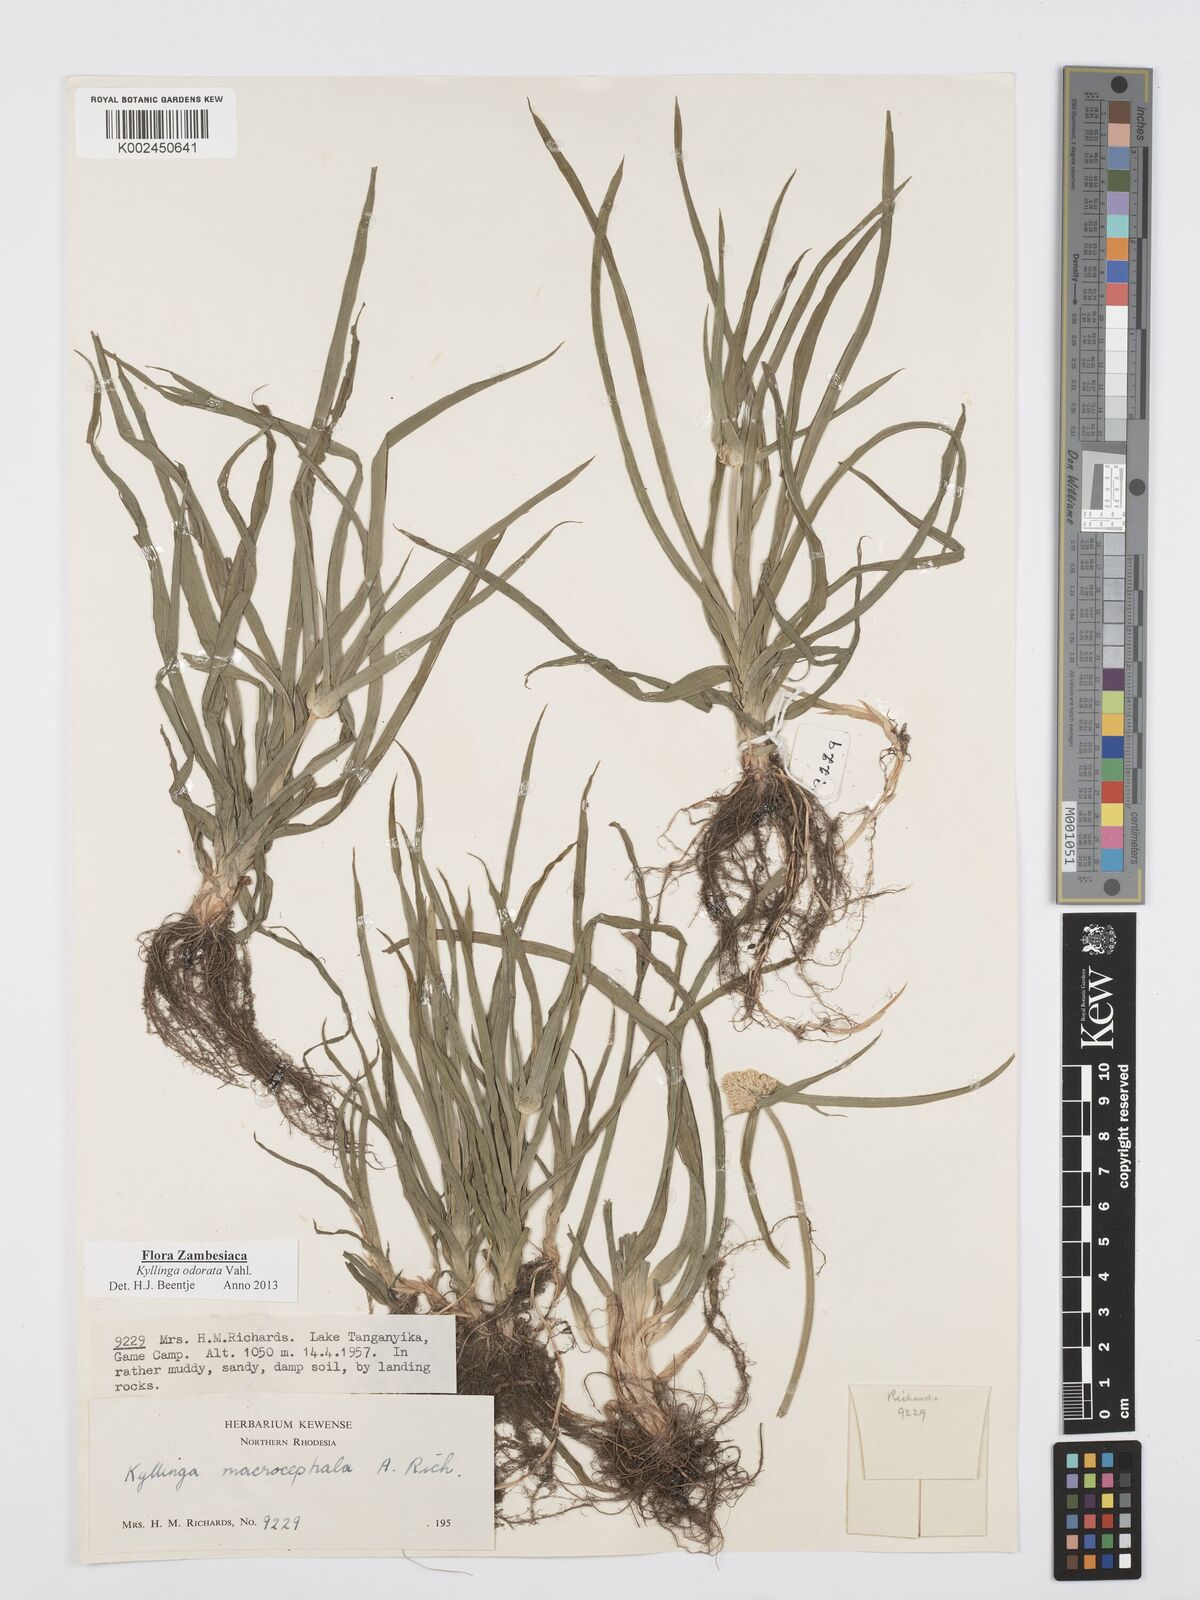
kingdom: Plantae
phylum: Tracheophyta
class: Liliopsida
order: Poales
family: Cyperaceae
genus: Cyperus
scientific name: Cyperus
